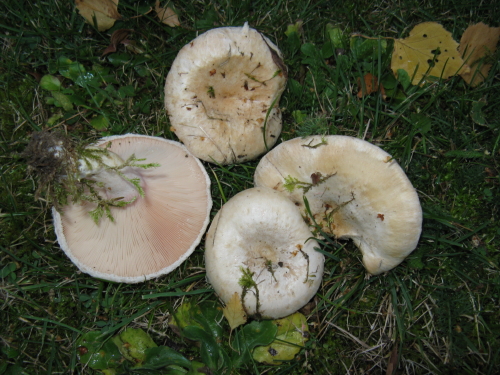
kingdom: Fungi
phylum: Basidiomycota
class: Agaricomycetes
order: Russulales
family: Russulaceae
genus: Lactarius
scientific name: Lactarius pubescens
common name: dunet mælkehat
